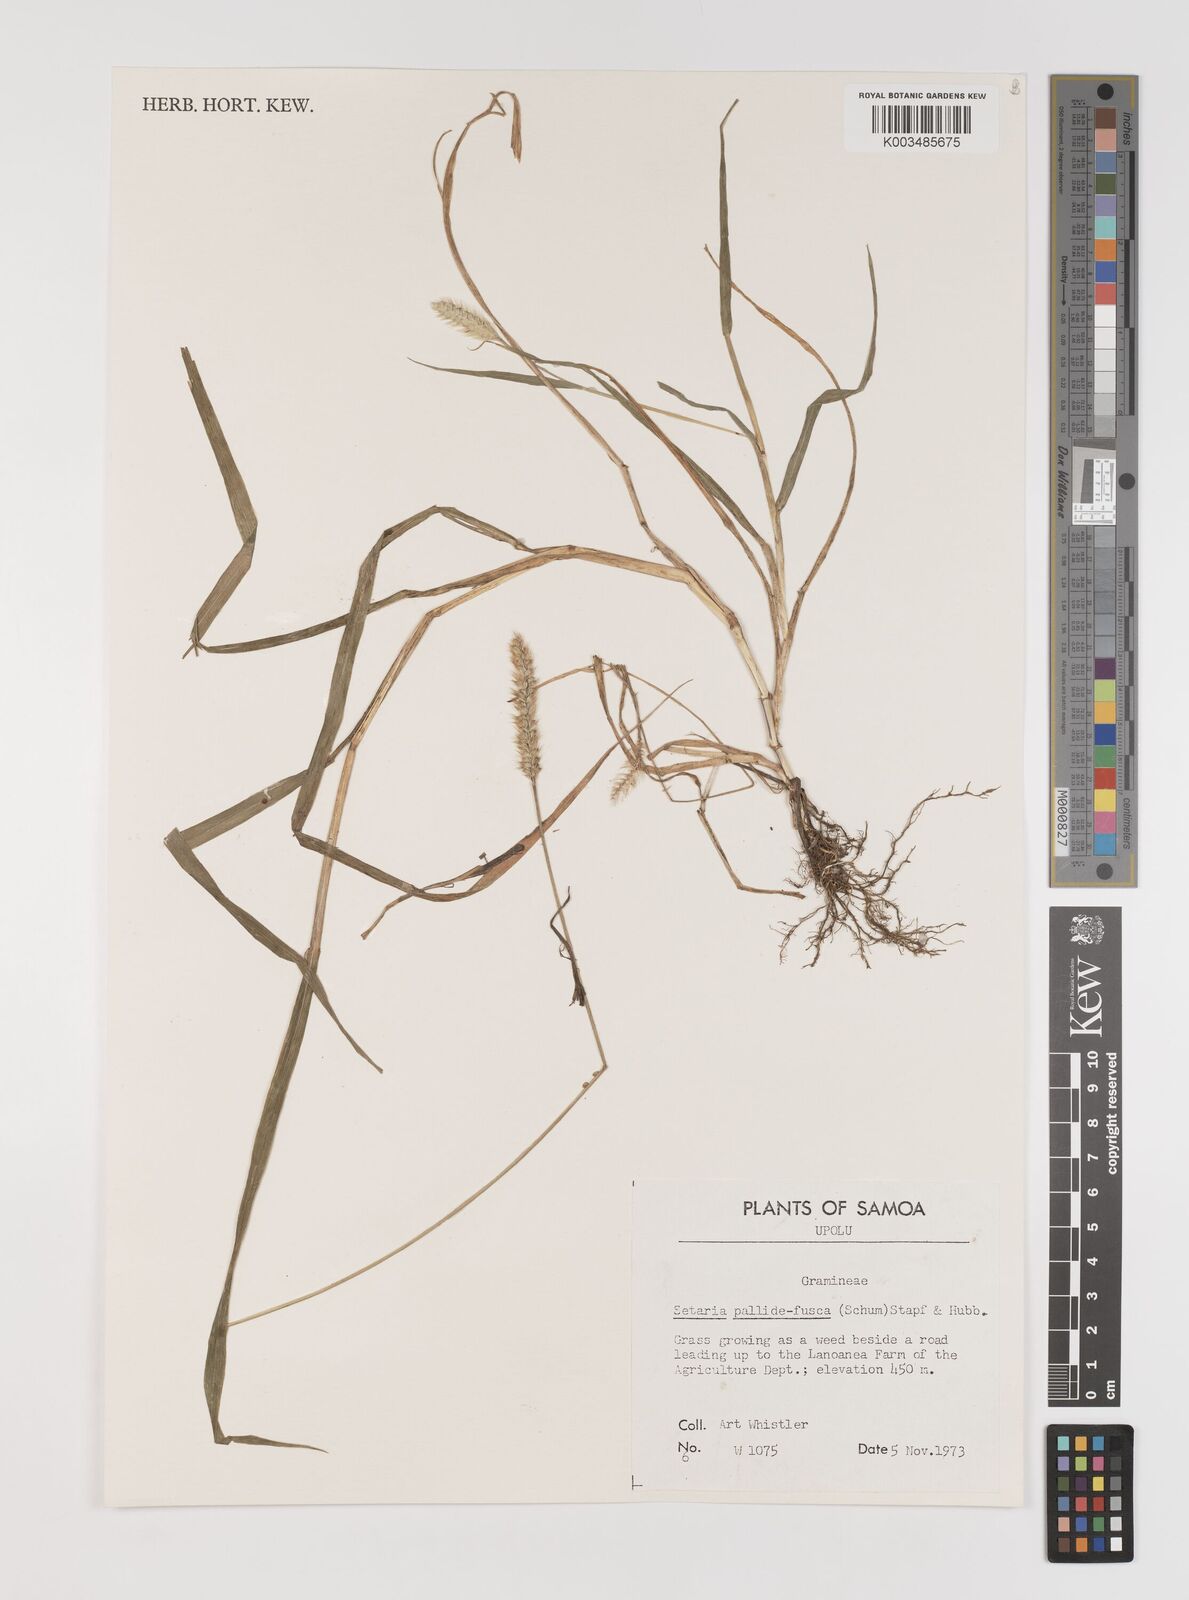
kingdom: Plantae
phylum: Tracheophyta
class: Liliopsida
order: Poales
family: Poaceae
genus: Setaria
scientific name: Setaria pumila
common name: Yellow bristle-grass
